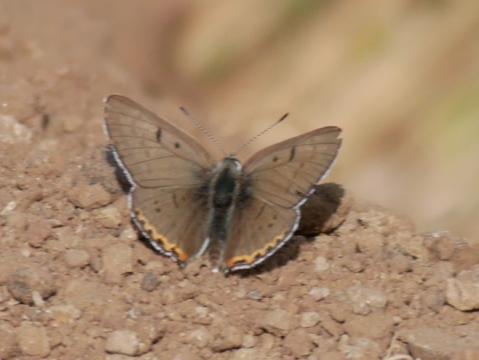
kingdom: Animalia
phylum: Arthropoda
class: Insecta
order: Lepidoptera
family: Lycaenidae
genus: Nacaduba
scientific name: Nacaduba dyopa
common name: Gray Copper
